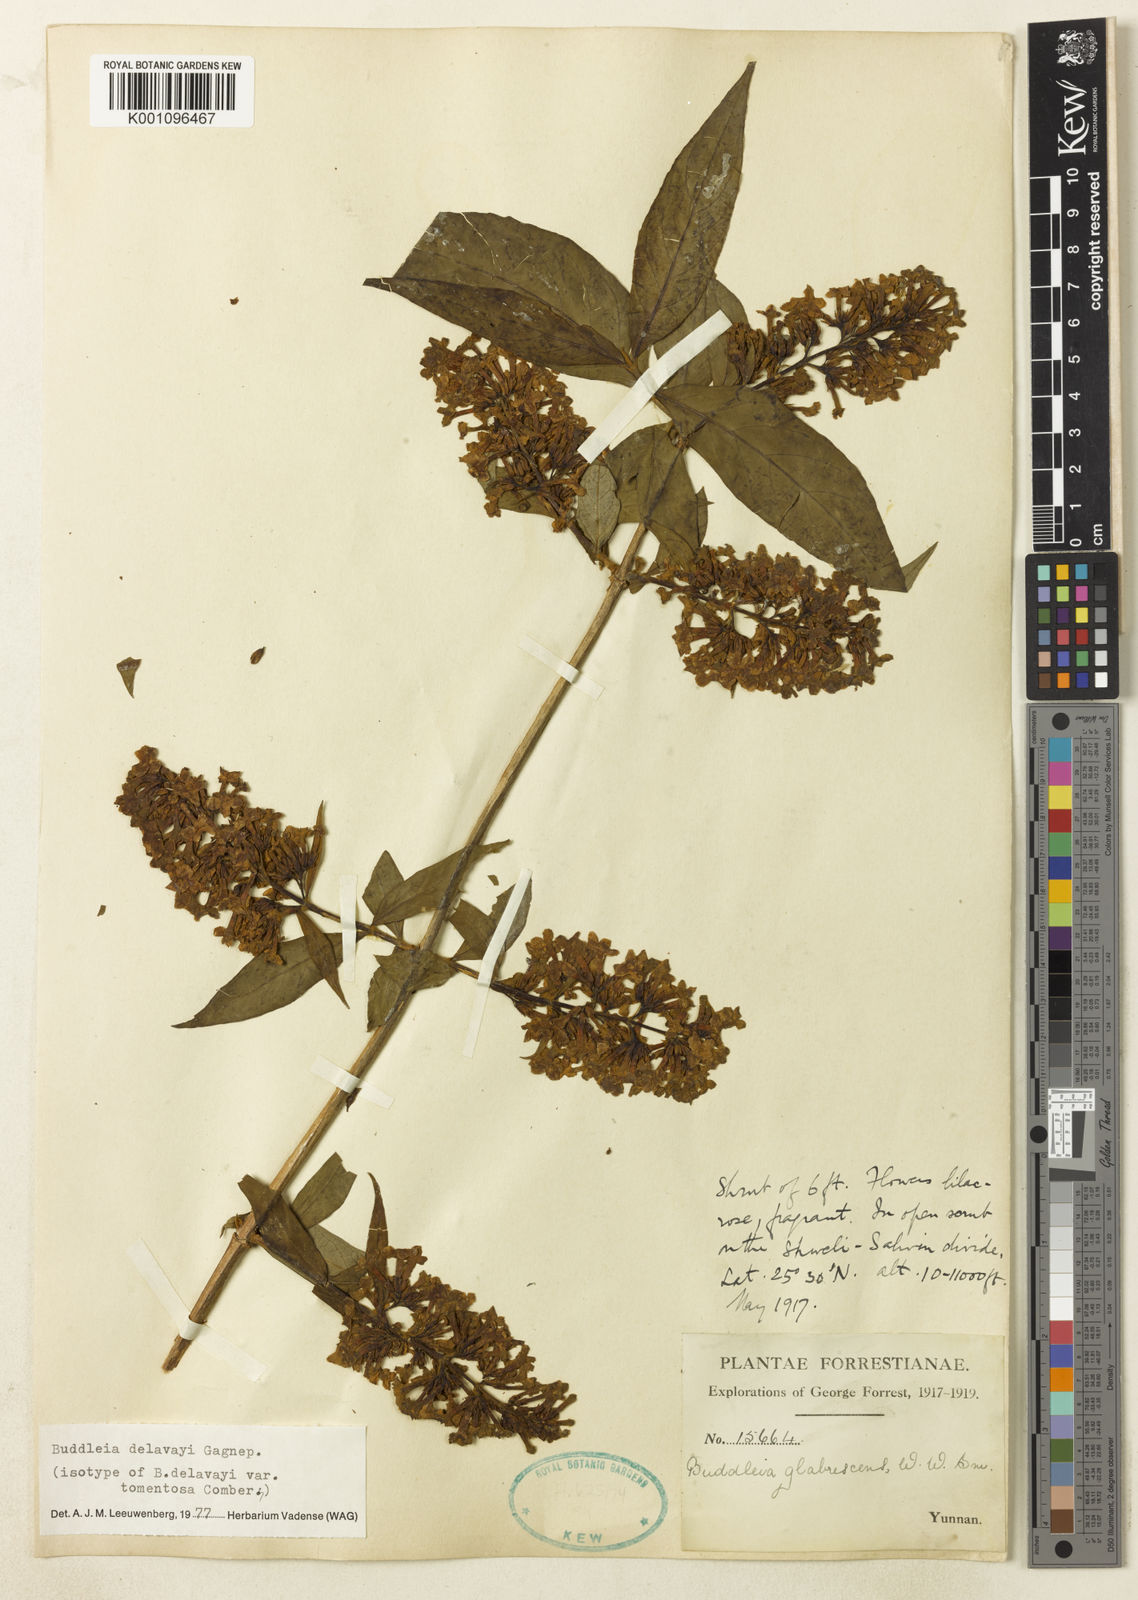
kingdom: Plantae
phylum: Tracheophyta
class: Magnoliopsida
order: Lamiales
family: Scrophulariaceae
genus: Buddleja
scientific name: Buddleja
